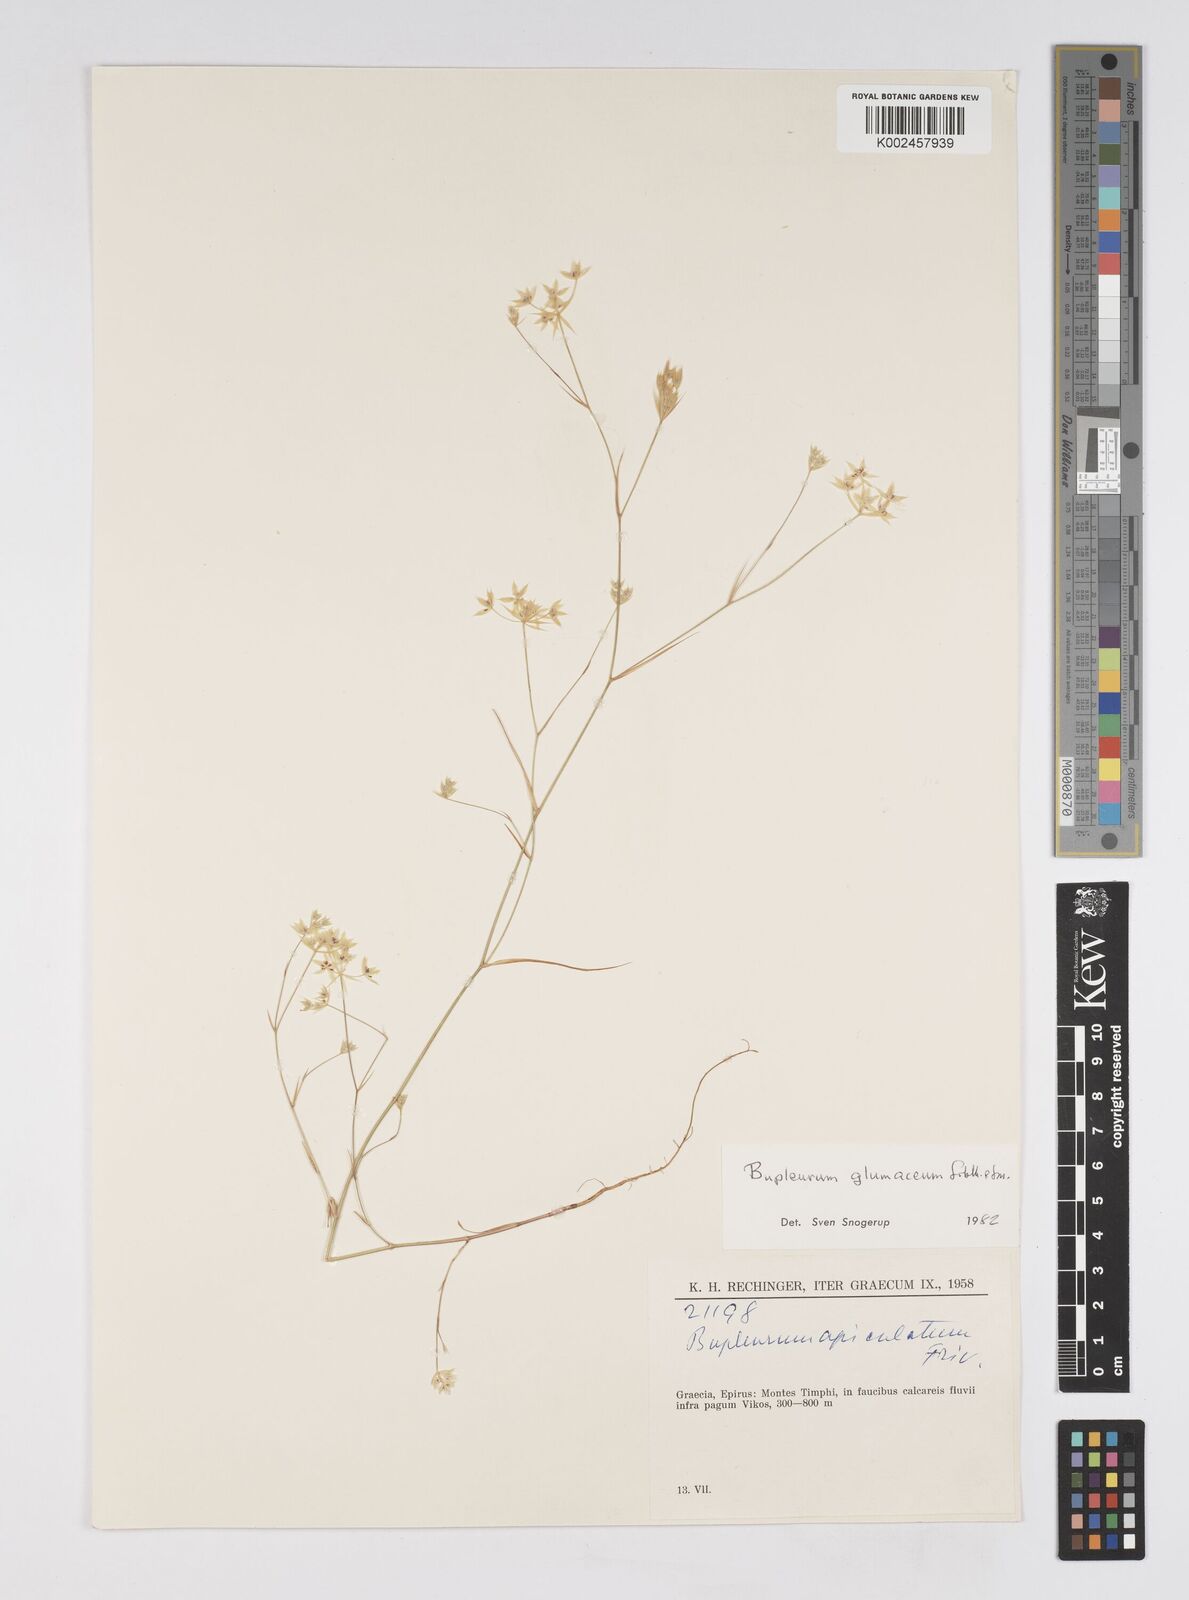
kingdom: Plantae
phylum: Tracheophyta
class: Magnoliopsida
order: Apiales
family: Apiaceae
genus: Bupleurum
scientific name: Bupleurum glumaceum
